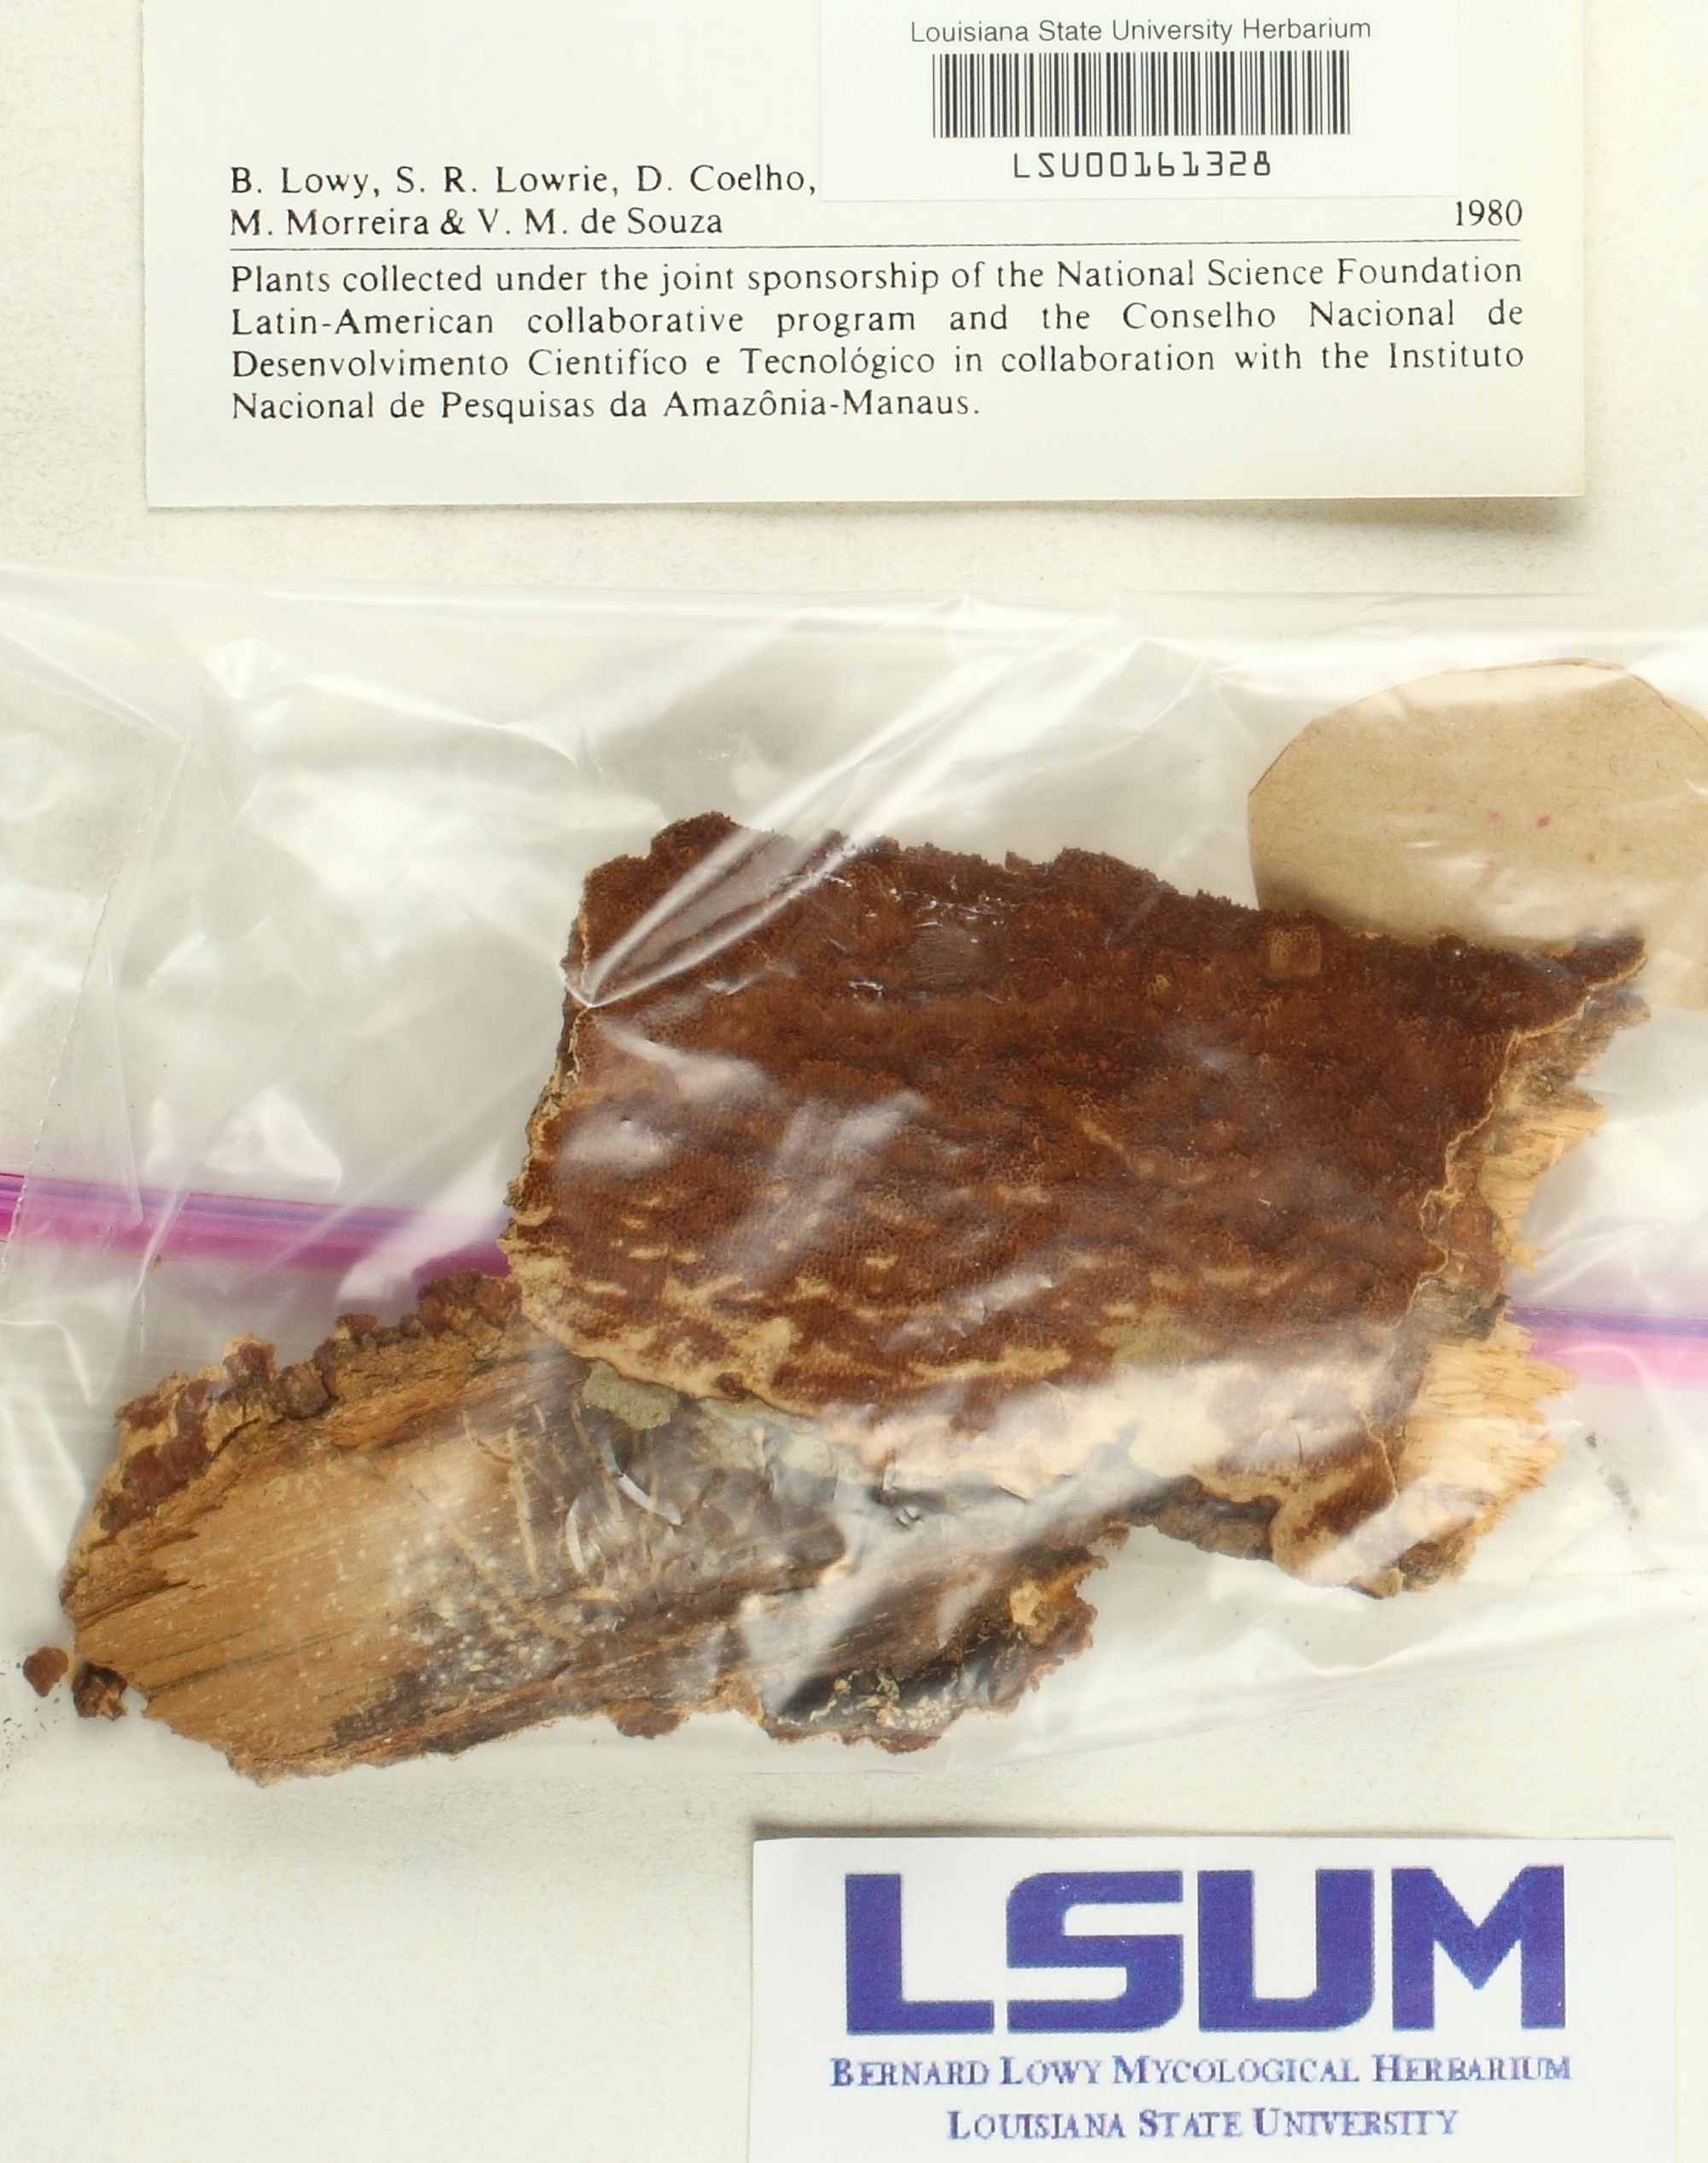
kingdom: Fungi
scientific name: Fungi
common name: Fungi
